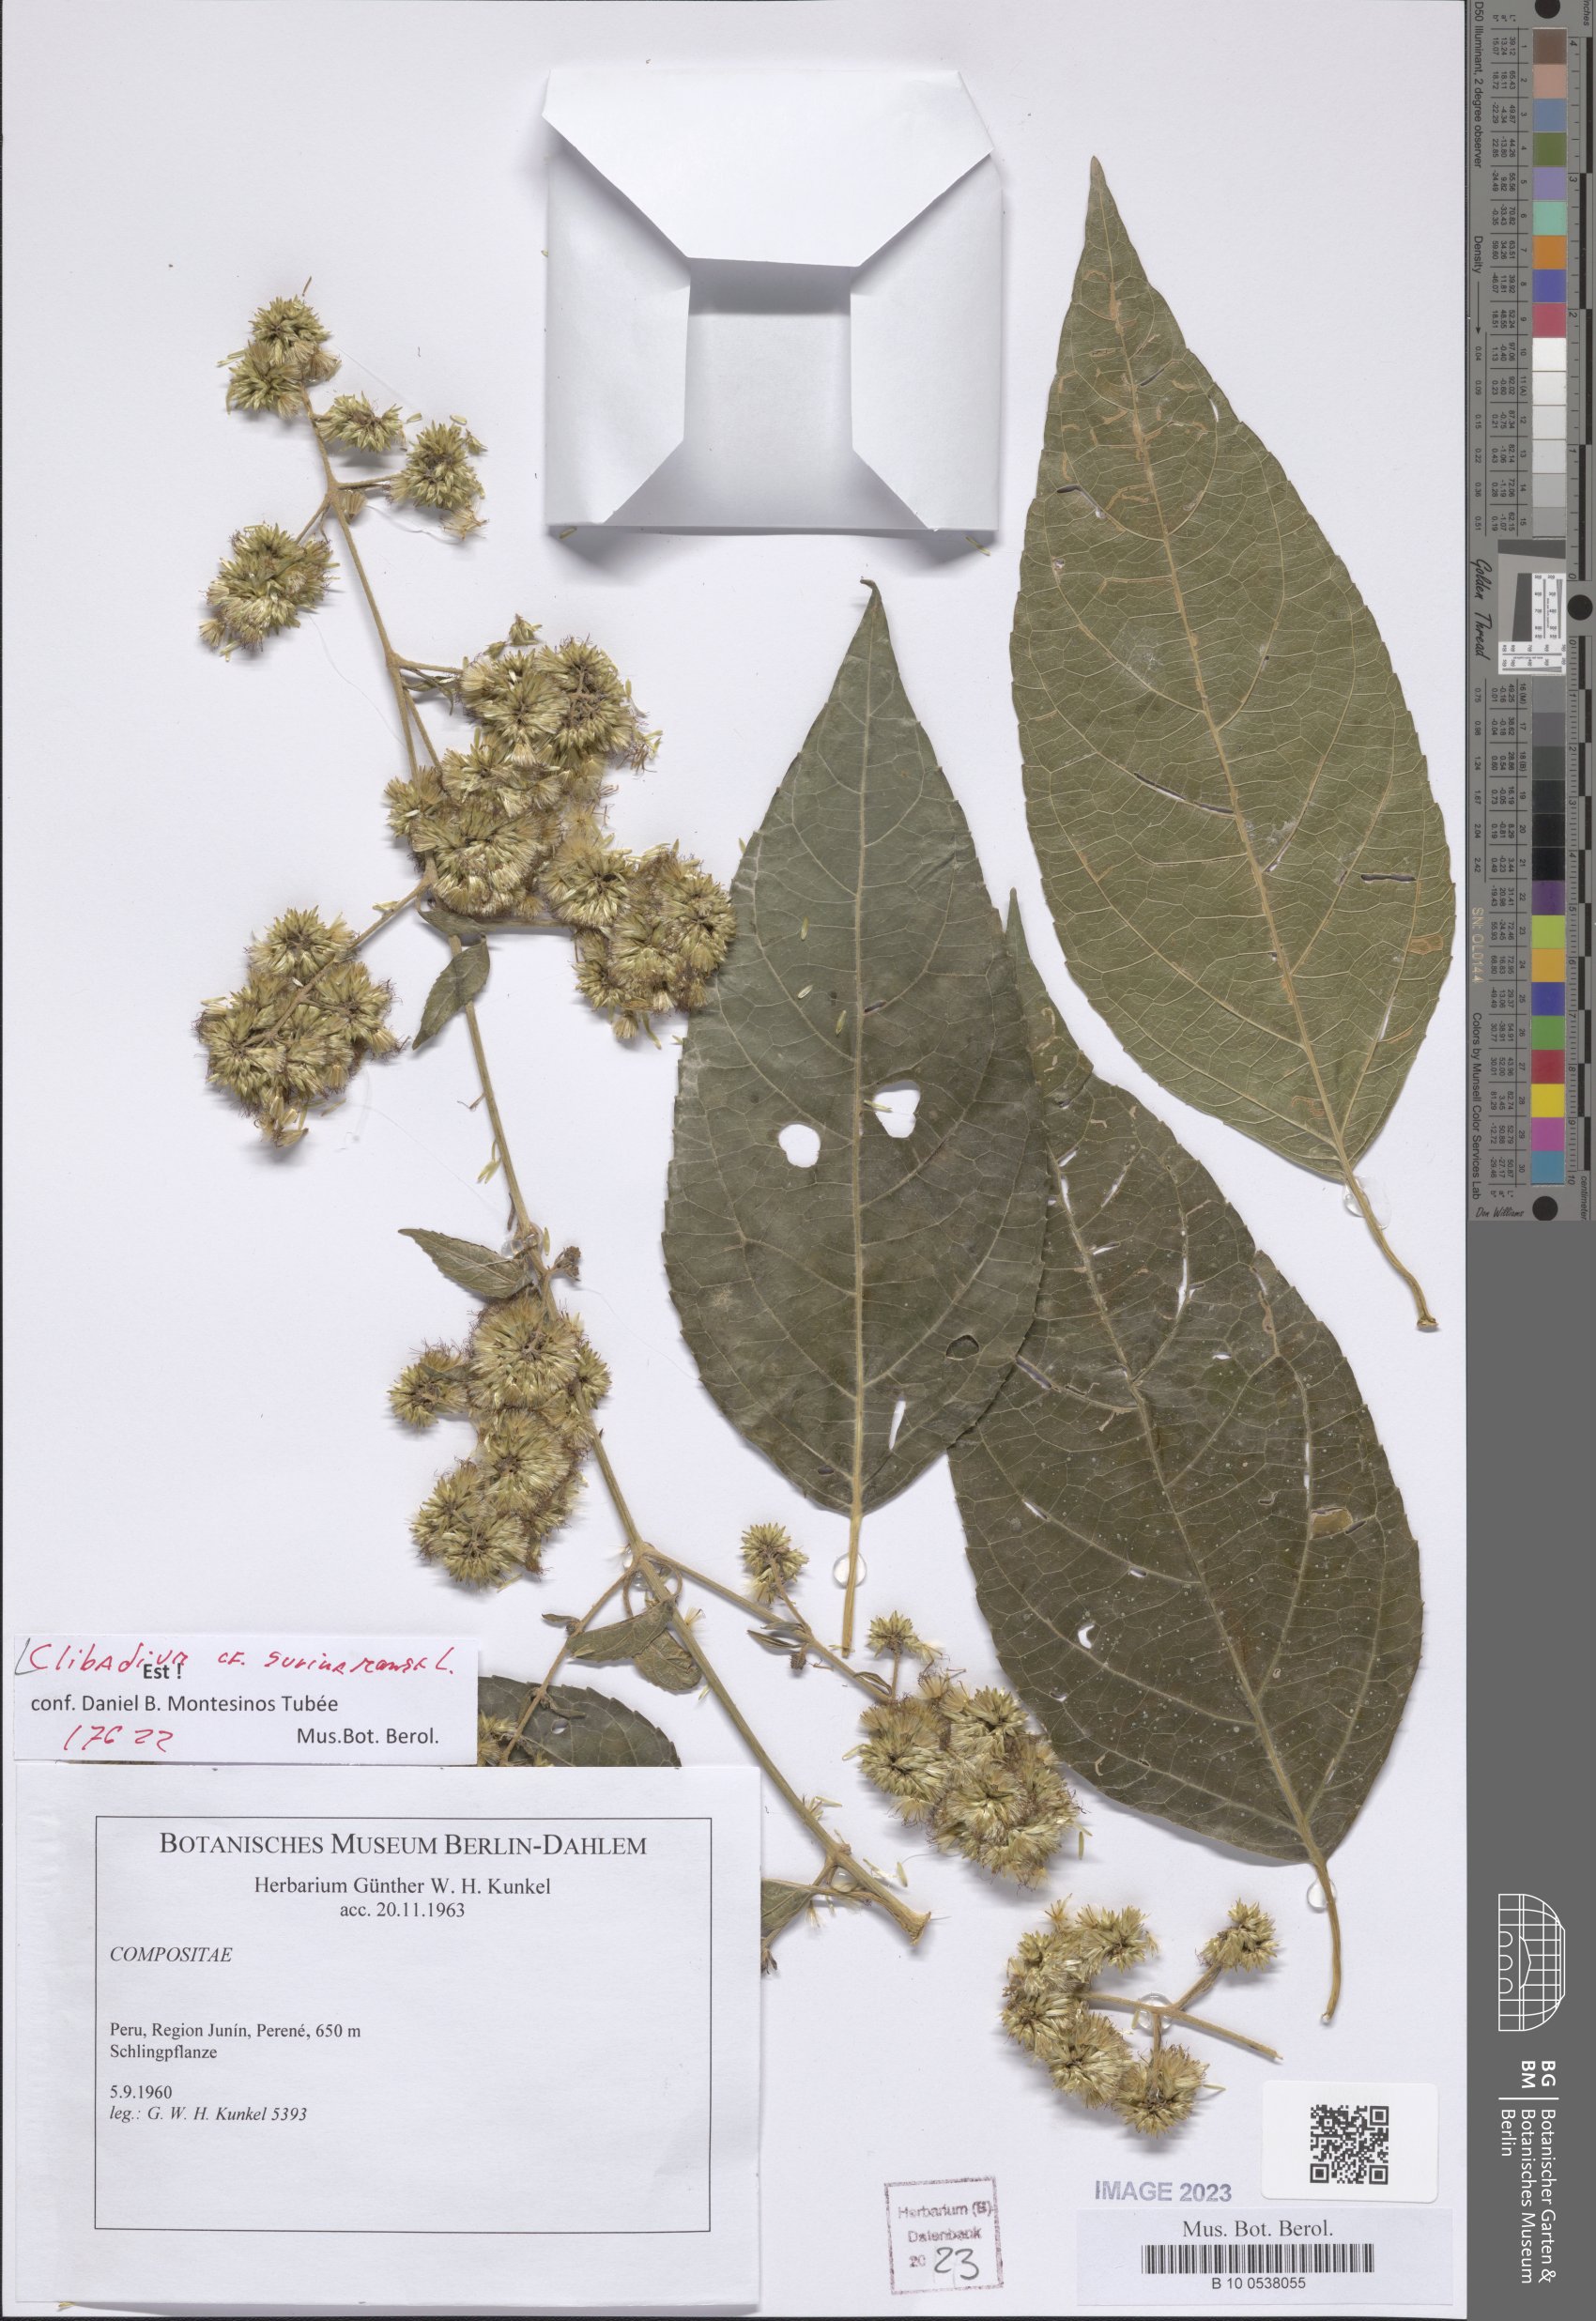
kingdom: Plantae
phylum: Tracheophyta
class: Magnoliopsida
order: Asterales
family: Asteraceae
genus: Clibadium
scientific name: Clibadium surinamense
